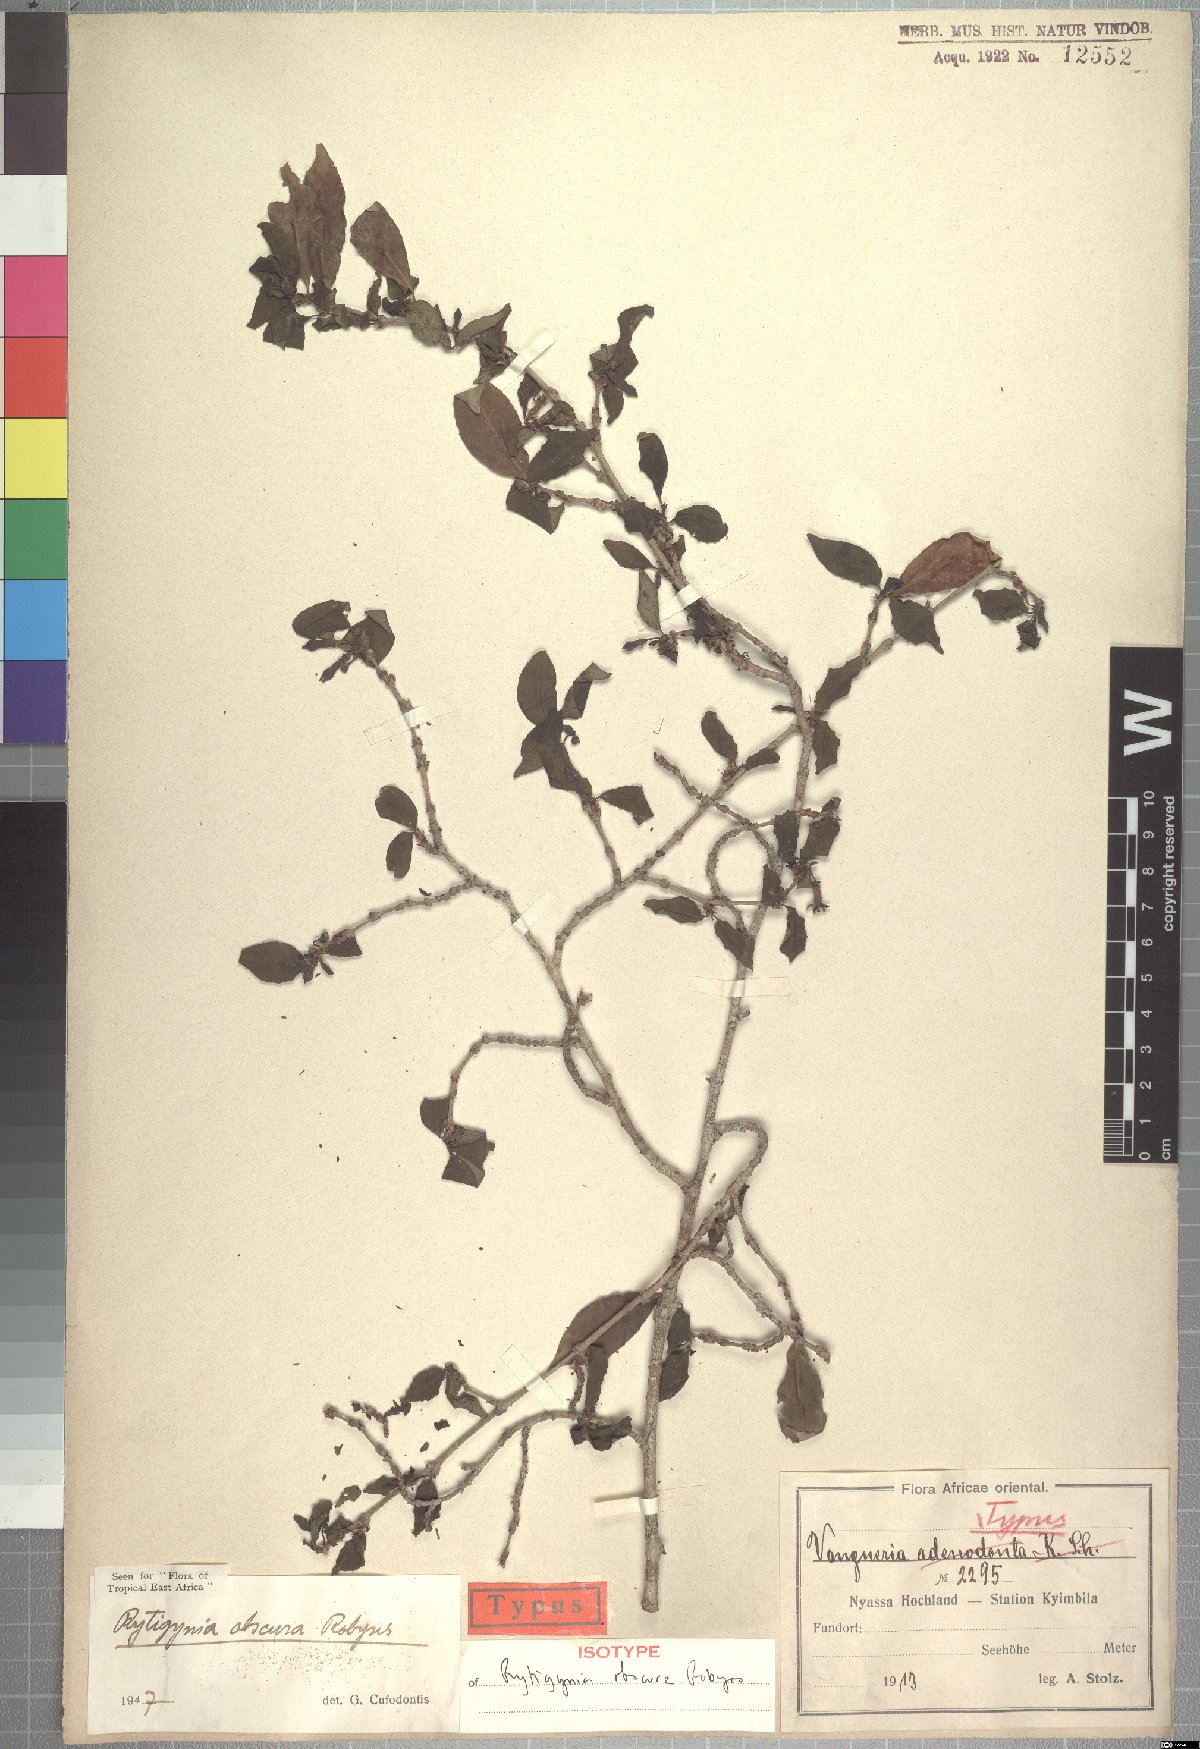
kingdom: Plantae
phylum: Tracheophyta
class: Magnoliopsida
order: Gentianales
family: Rubiaceae
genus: Rytigynia
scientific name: Rytigynia obscura
